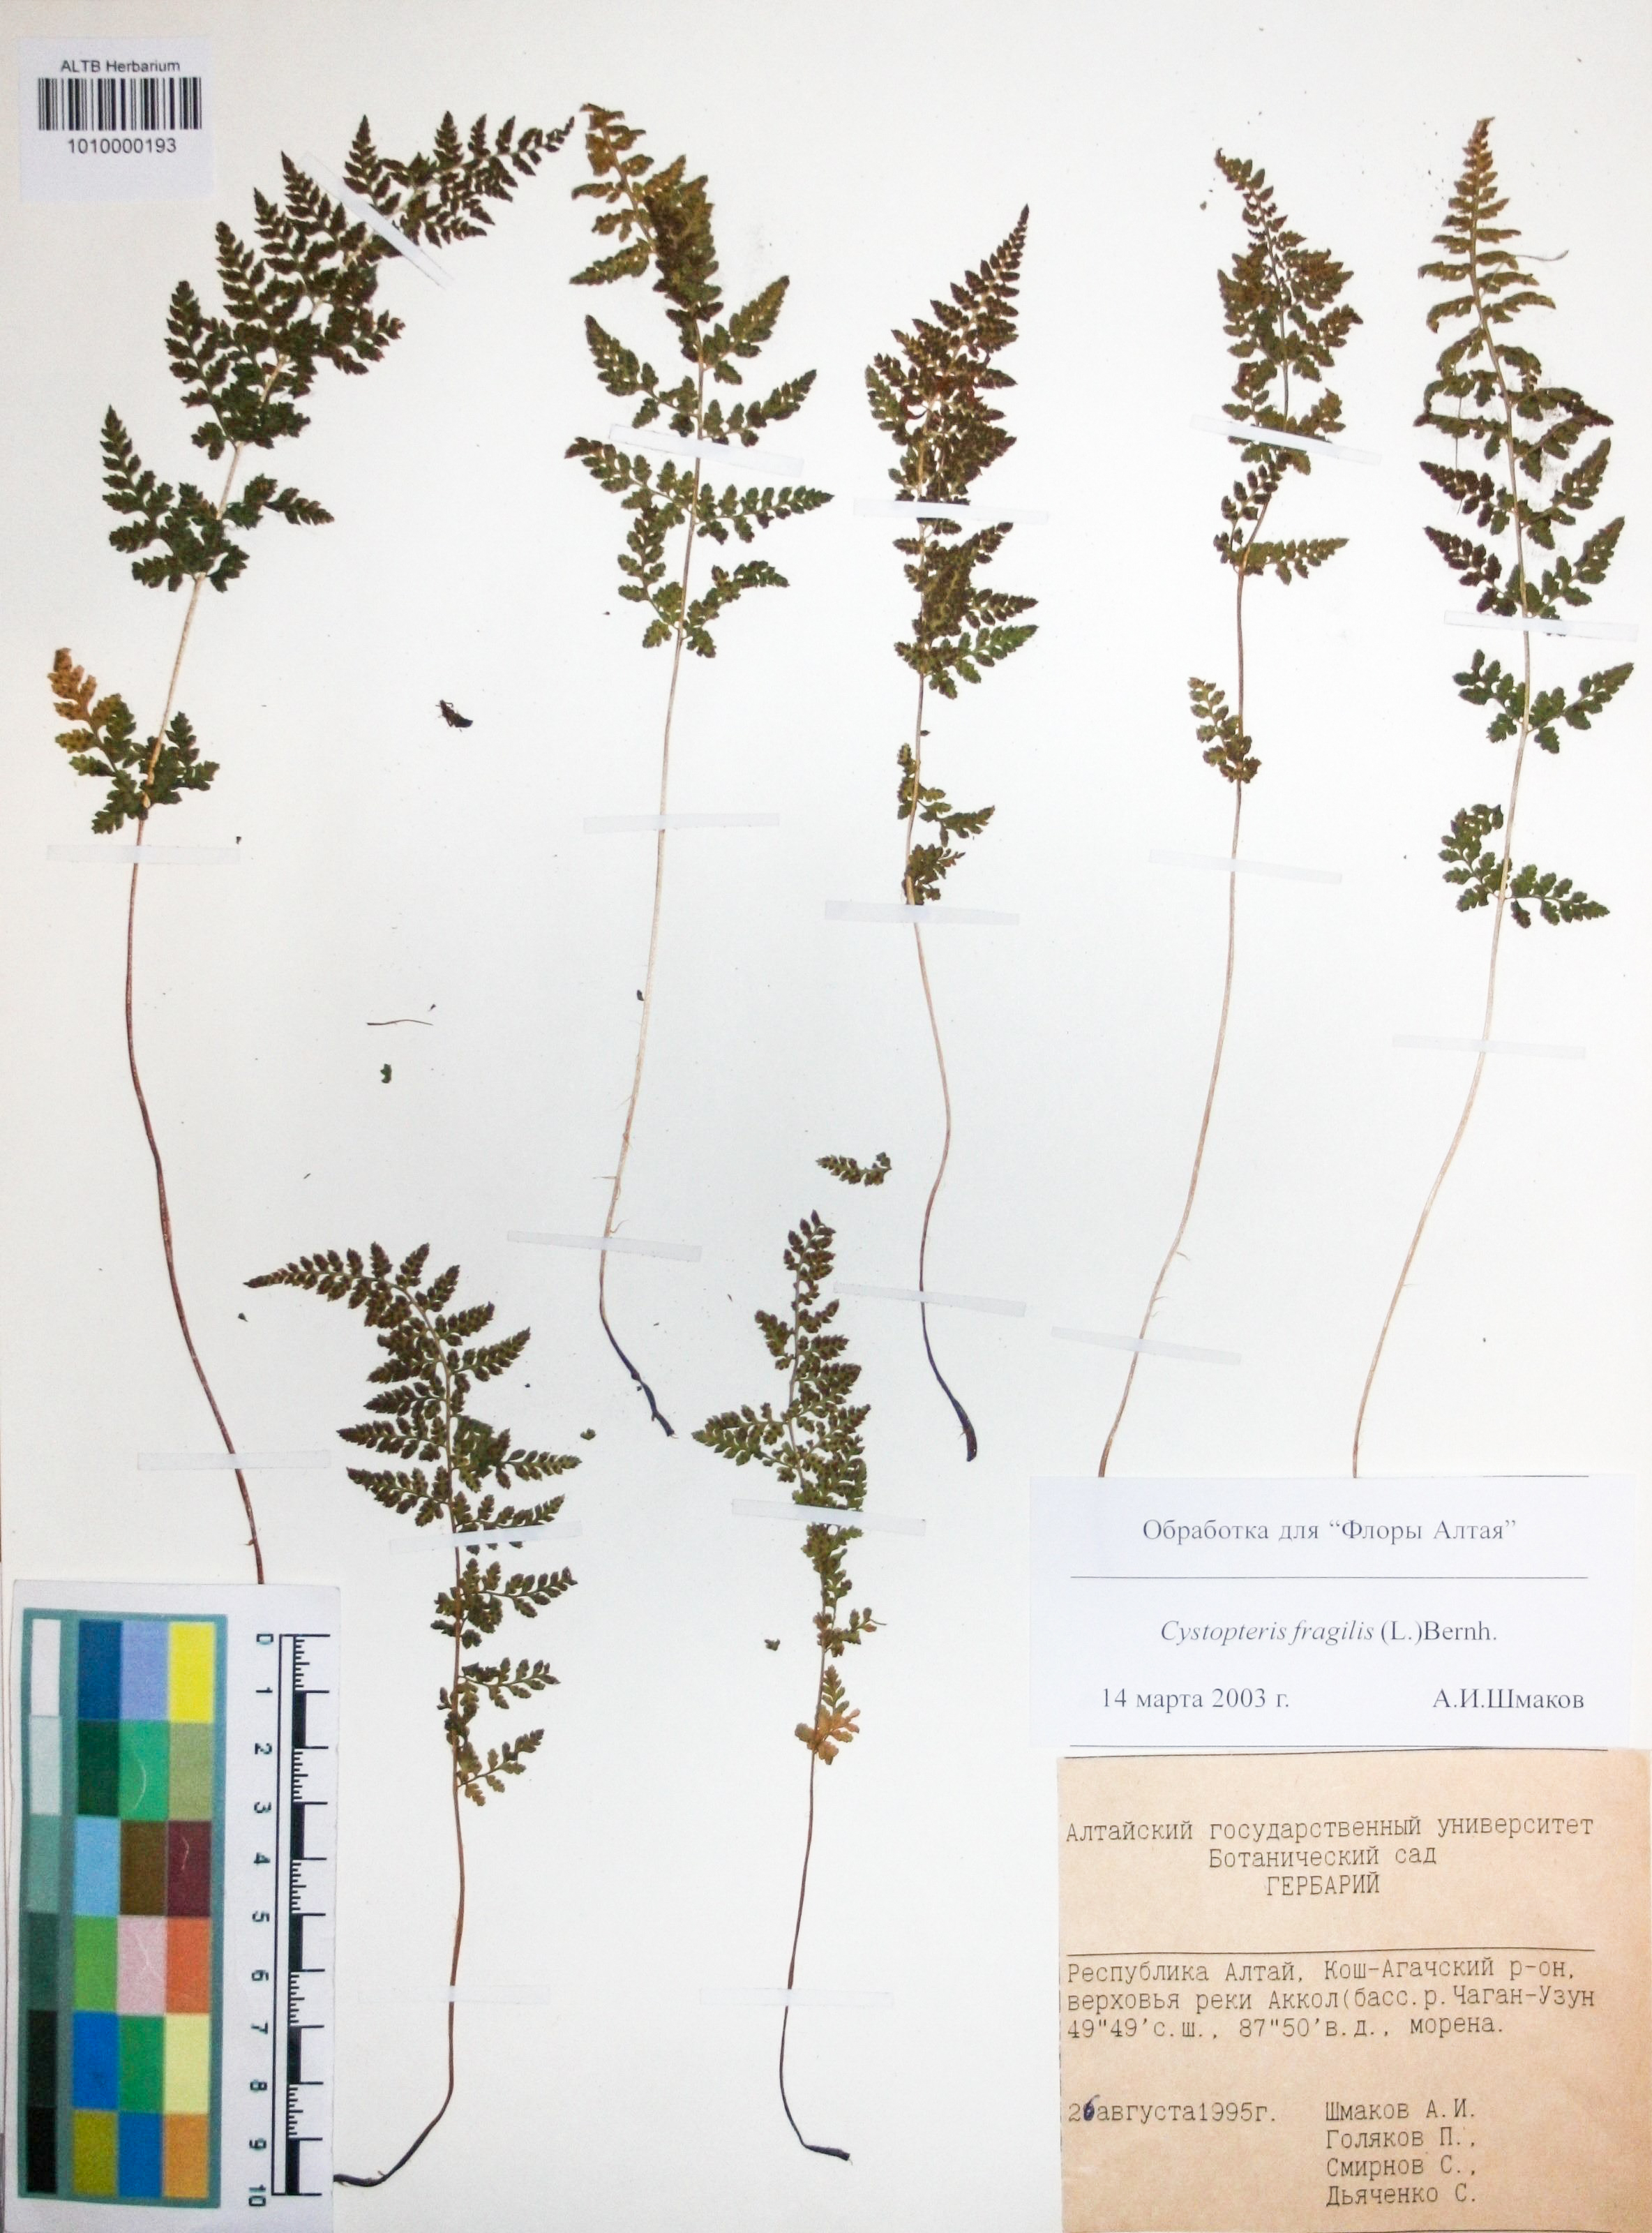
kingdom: Plantae
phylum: Tracheophyta
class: Polypodiopsida
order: Polypodiales
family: Cystopteridaceae
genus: Cystopteris
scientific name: Cystopteris fragilis
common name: Brittle bladder fern
